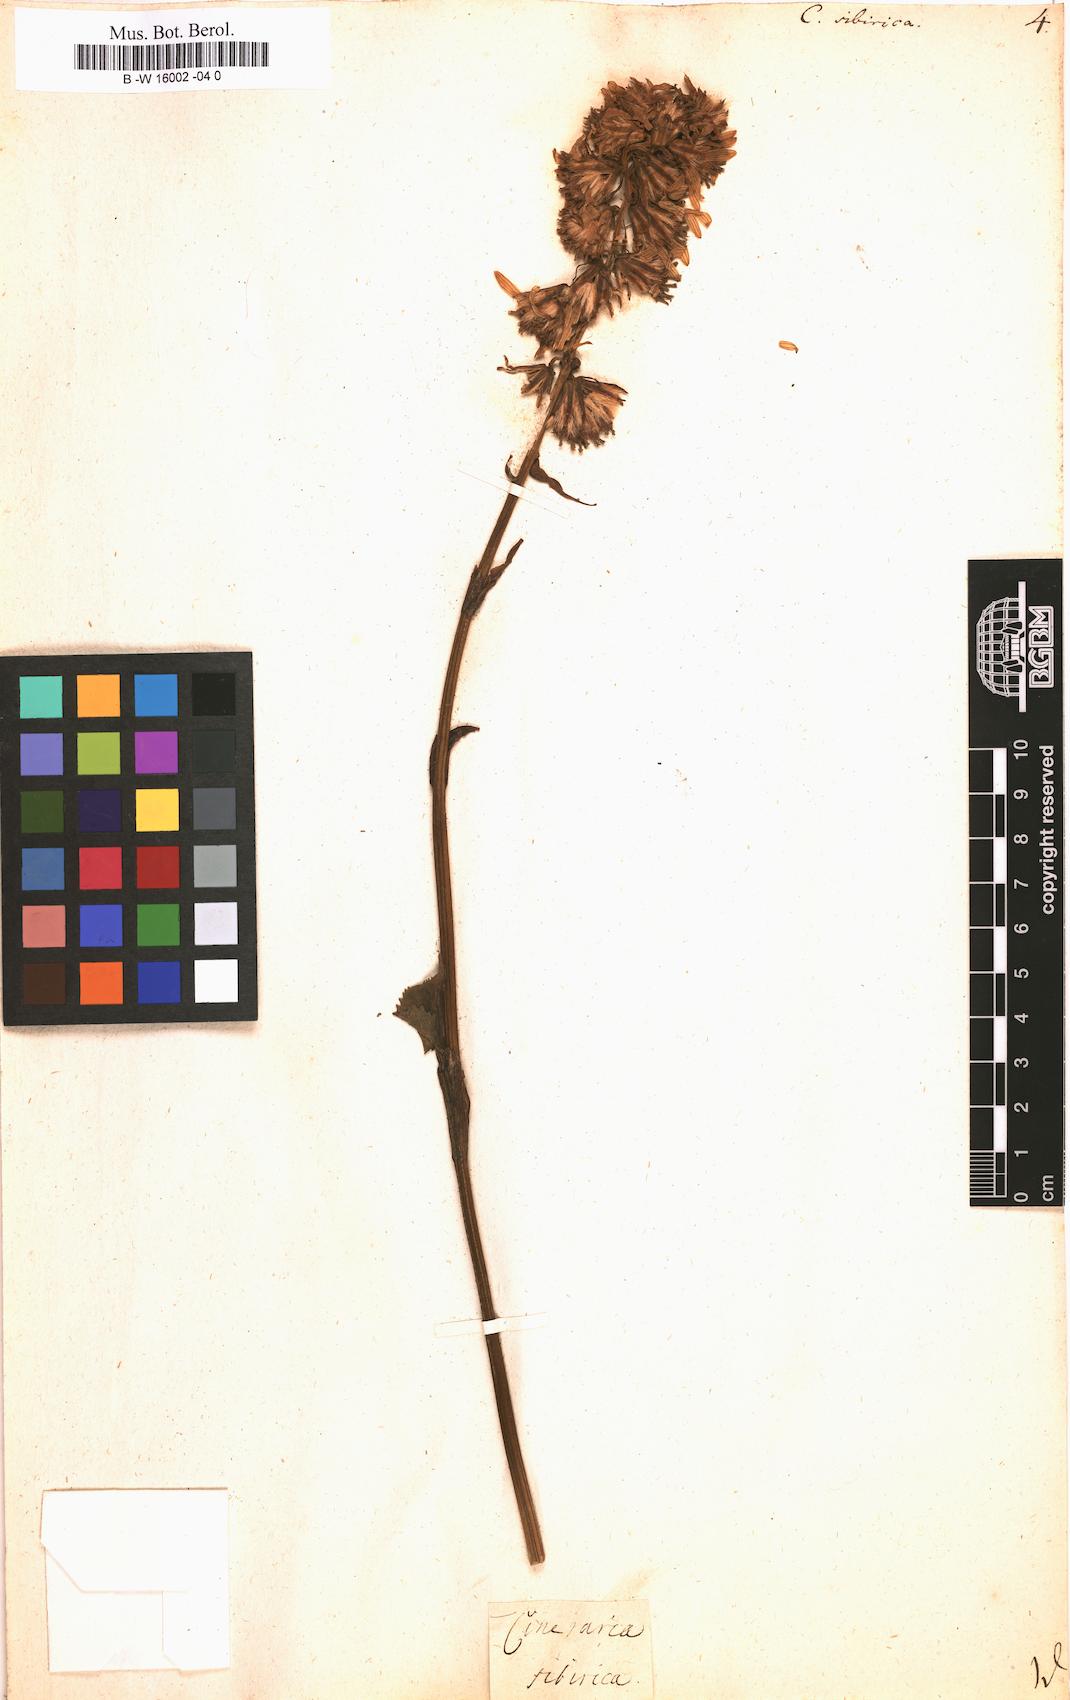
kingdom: Plantae
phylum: Tracheophyta
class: Magnoliopsida
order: Asterales
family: Asteraceae
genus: Ligularia
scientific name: Ligularia sibirica
